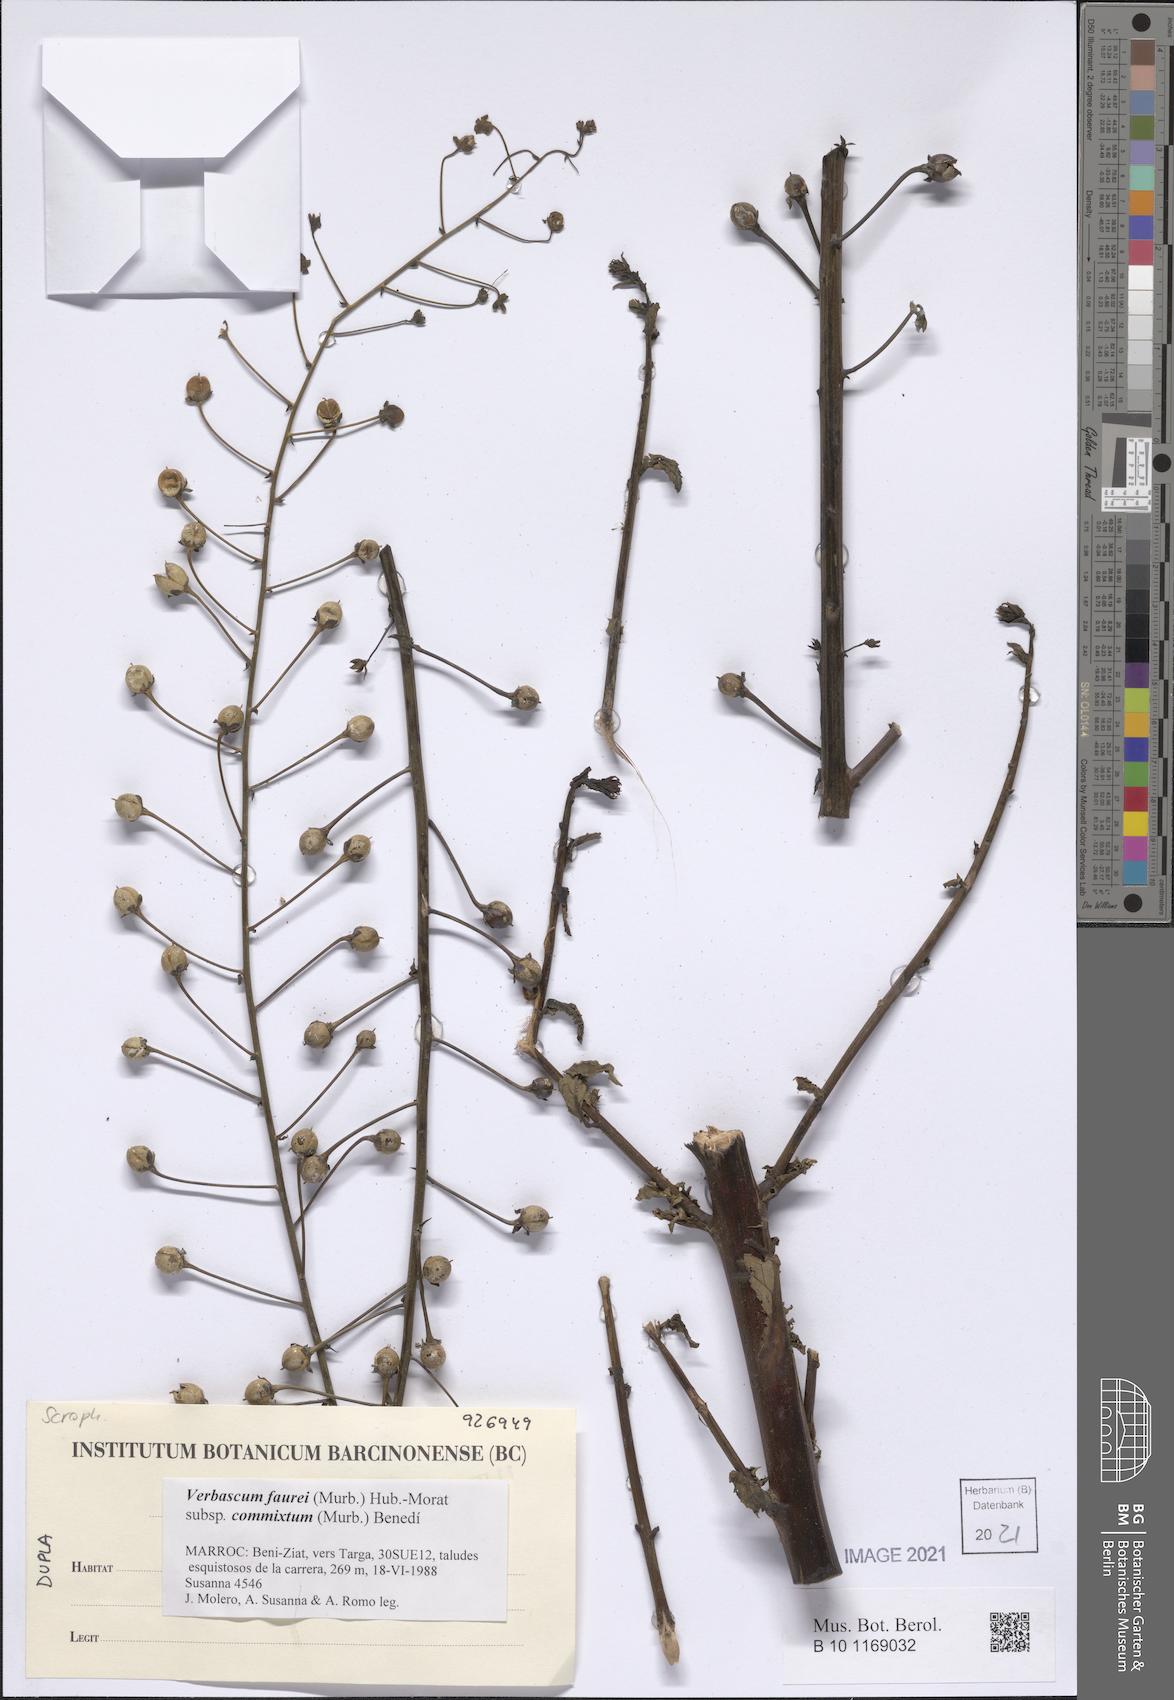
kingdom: Plantae
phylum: Tracheophyta
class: Magnoliopsida
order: Lamiales
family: Scrophulariaceae
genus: Verbascum
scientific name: Verbascum faurei
